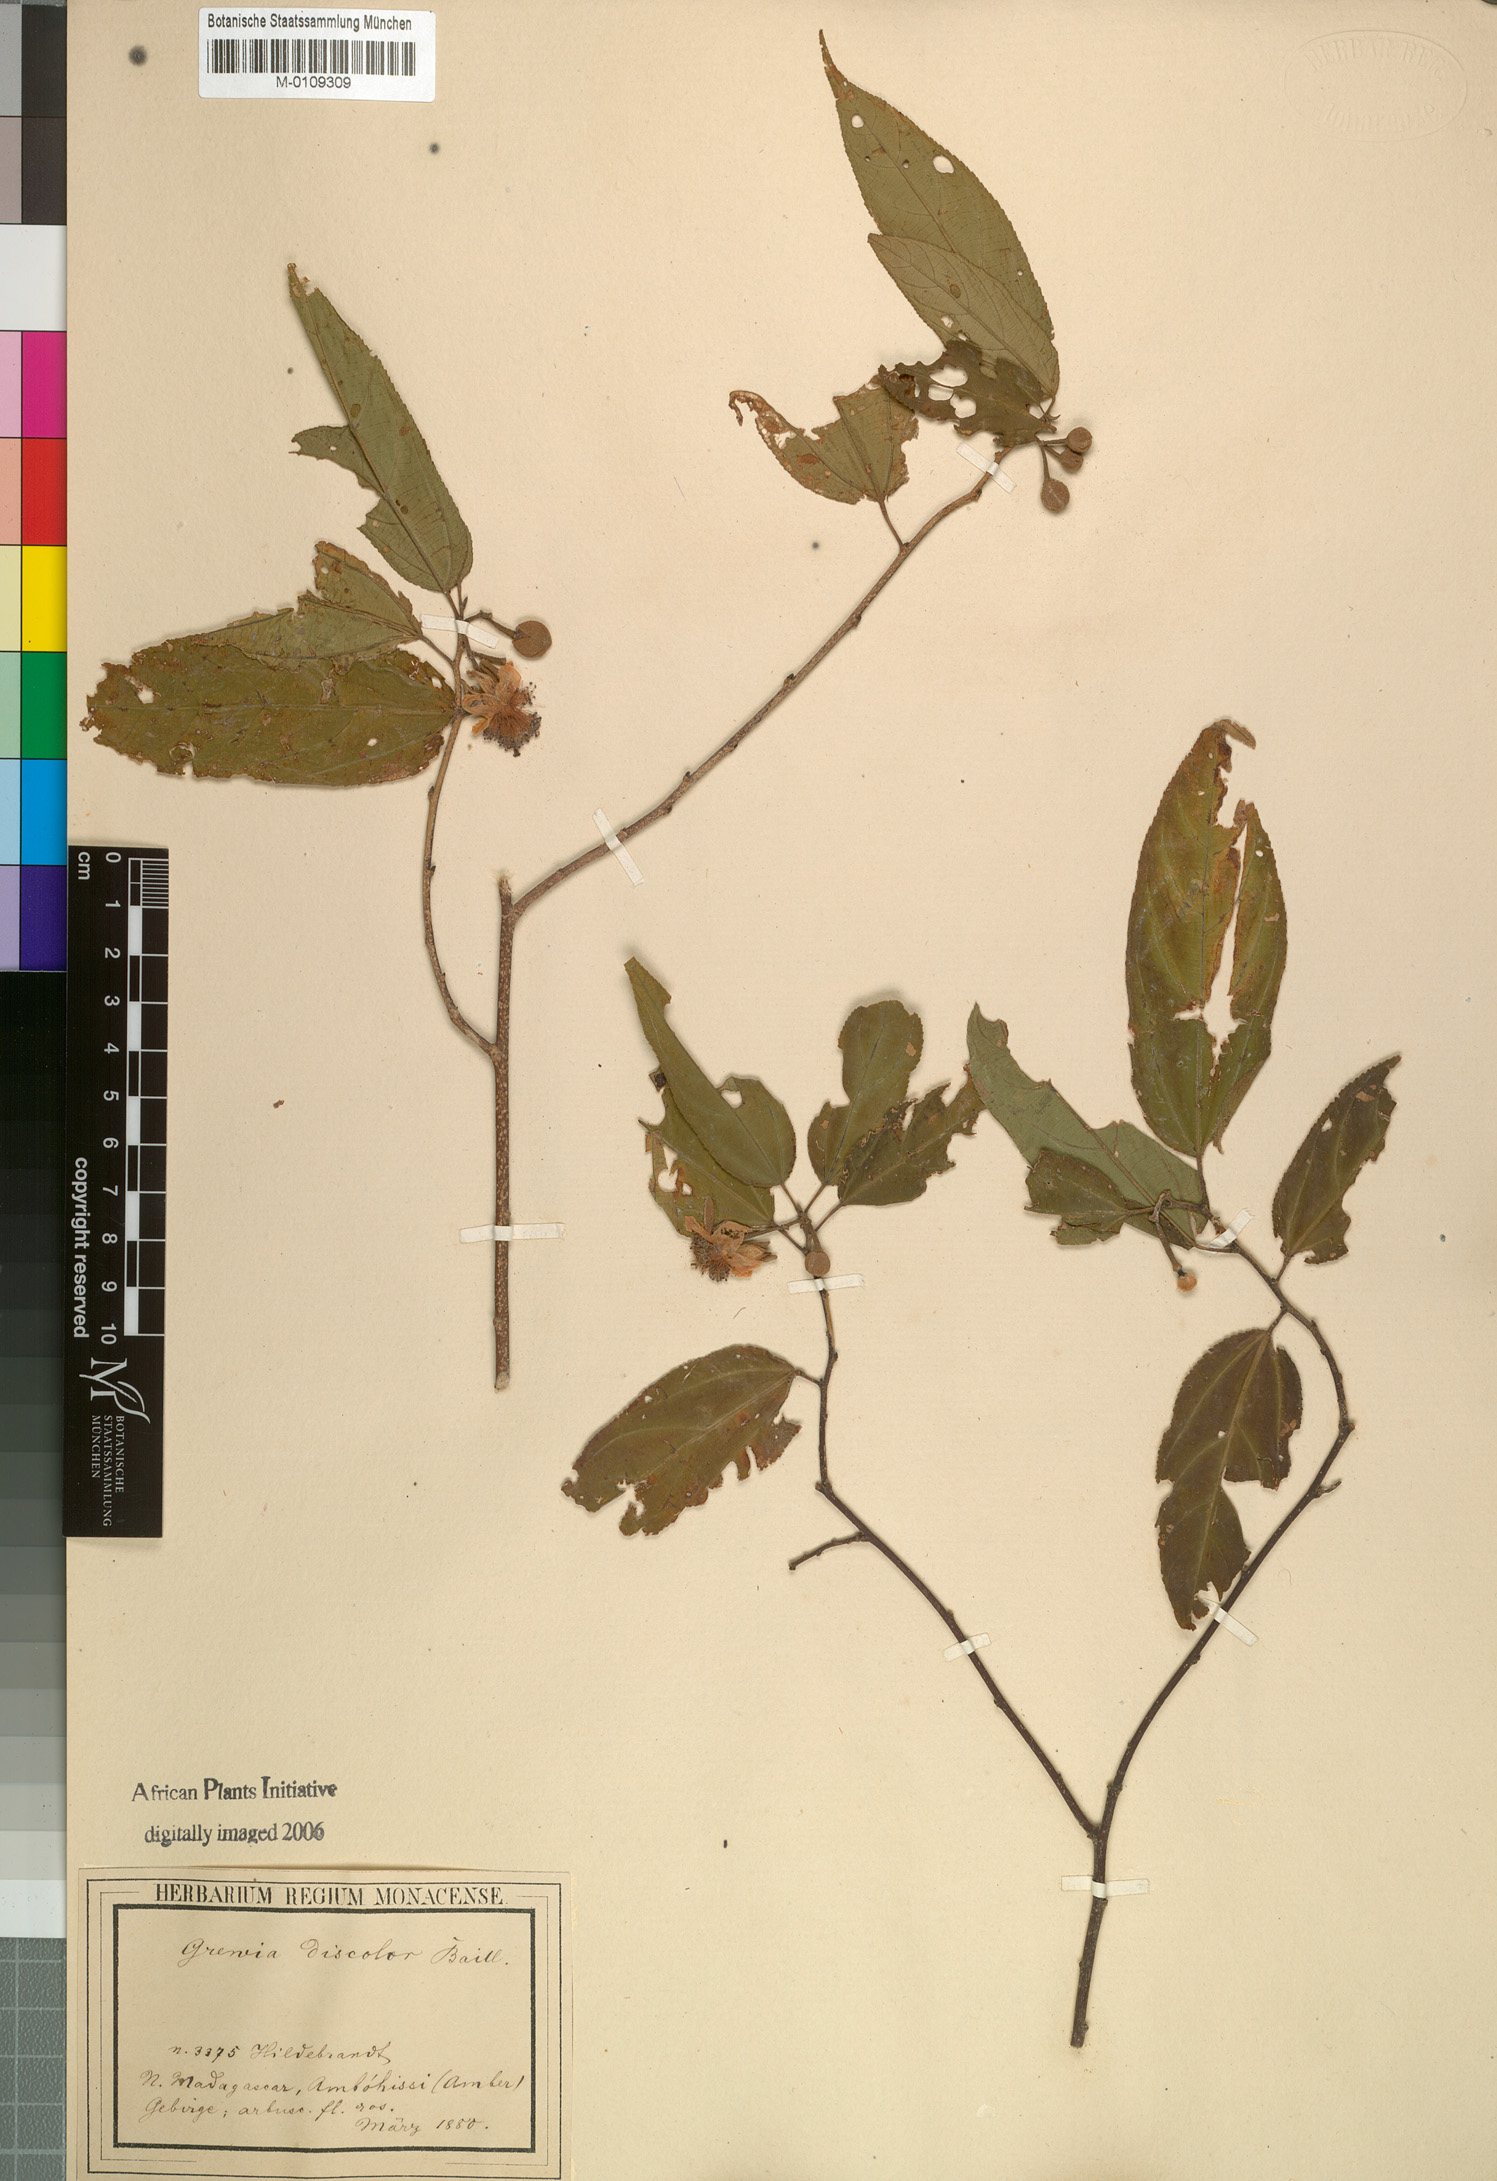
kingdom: Plantae
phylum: Tracheophyta
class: Magnoliopsida
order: Malvales
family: Malvaceae
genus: Grewia
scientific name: Grewia madagascariensis
